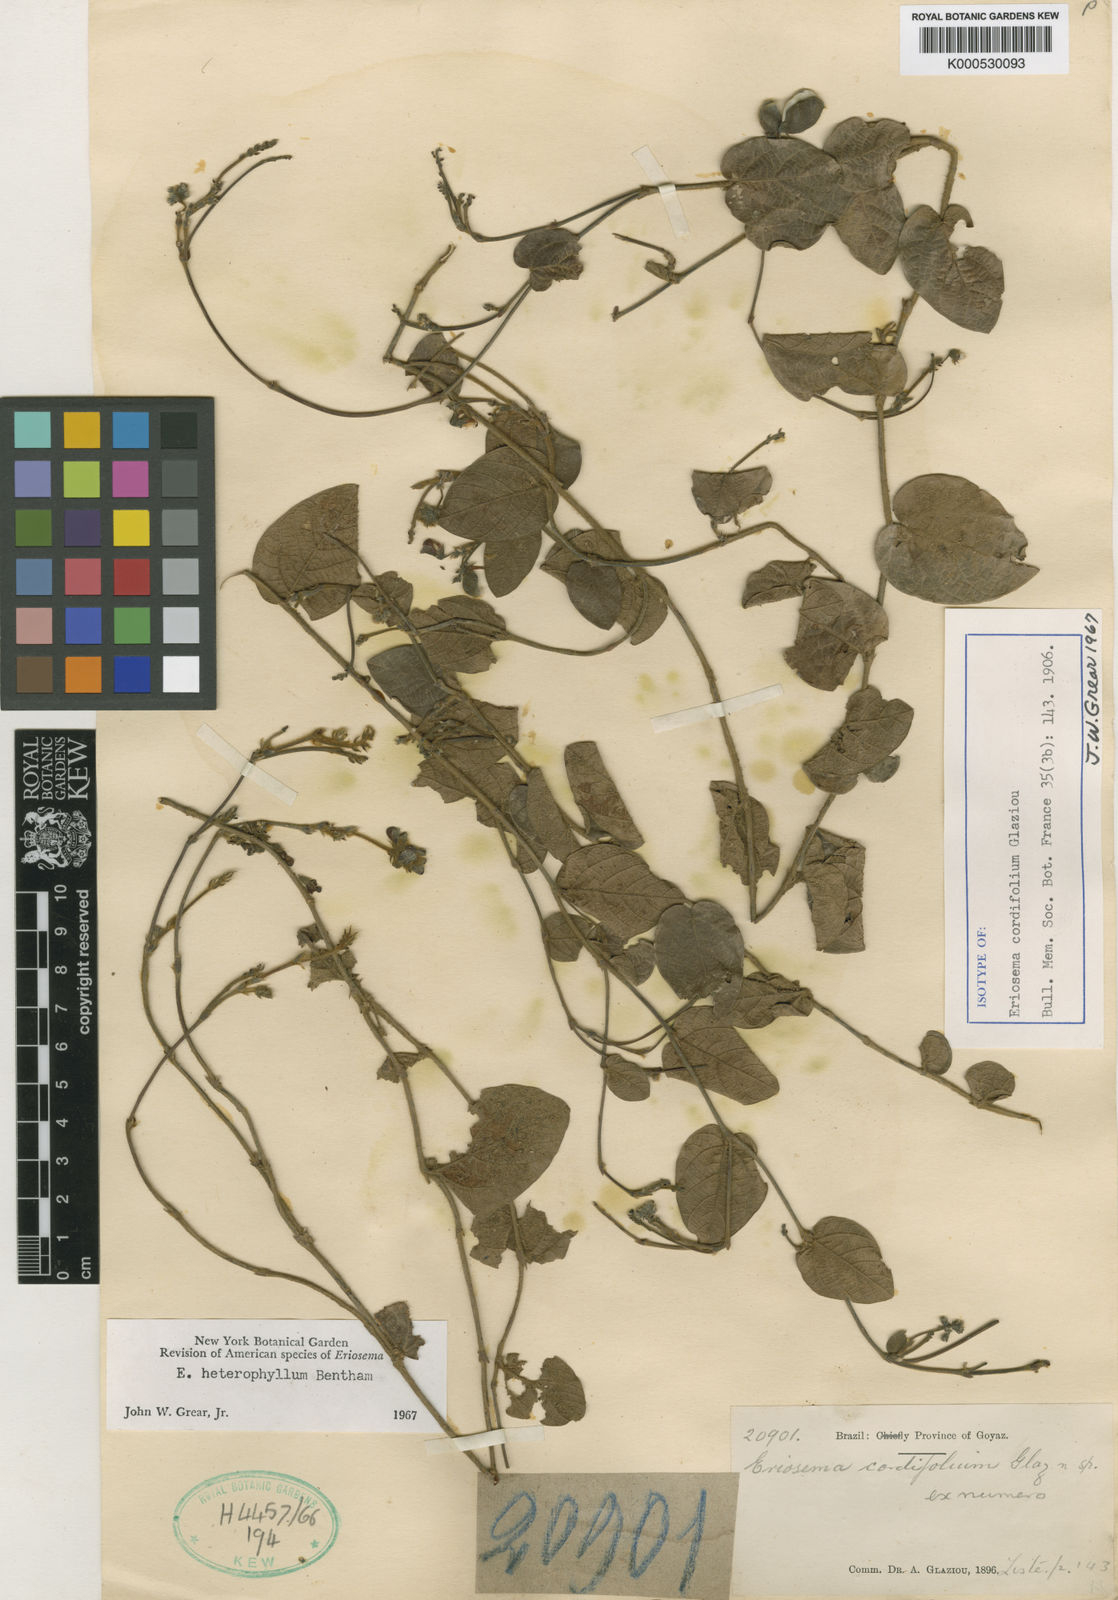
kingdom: Plantae
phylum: Tracheophyta
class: Magnoliopsida
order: Fabales
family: Fabaceae
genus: Eriosema
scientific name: Eriosema heterophyllum
